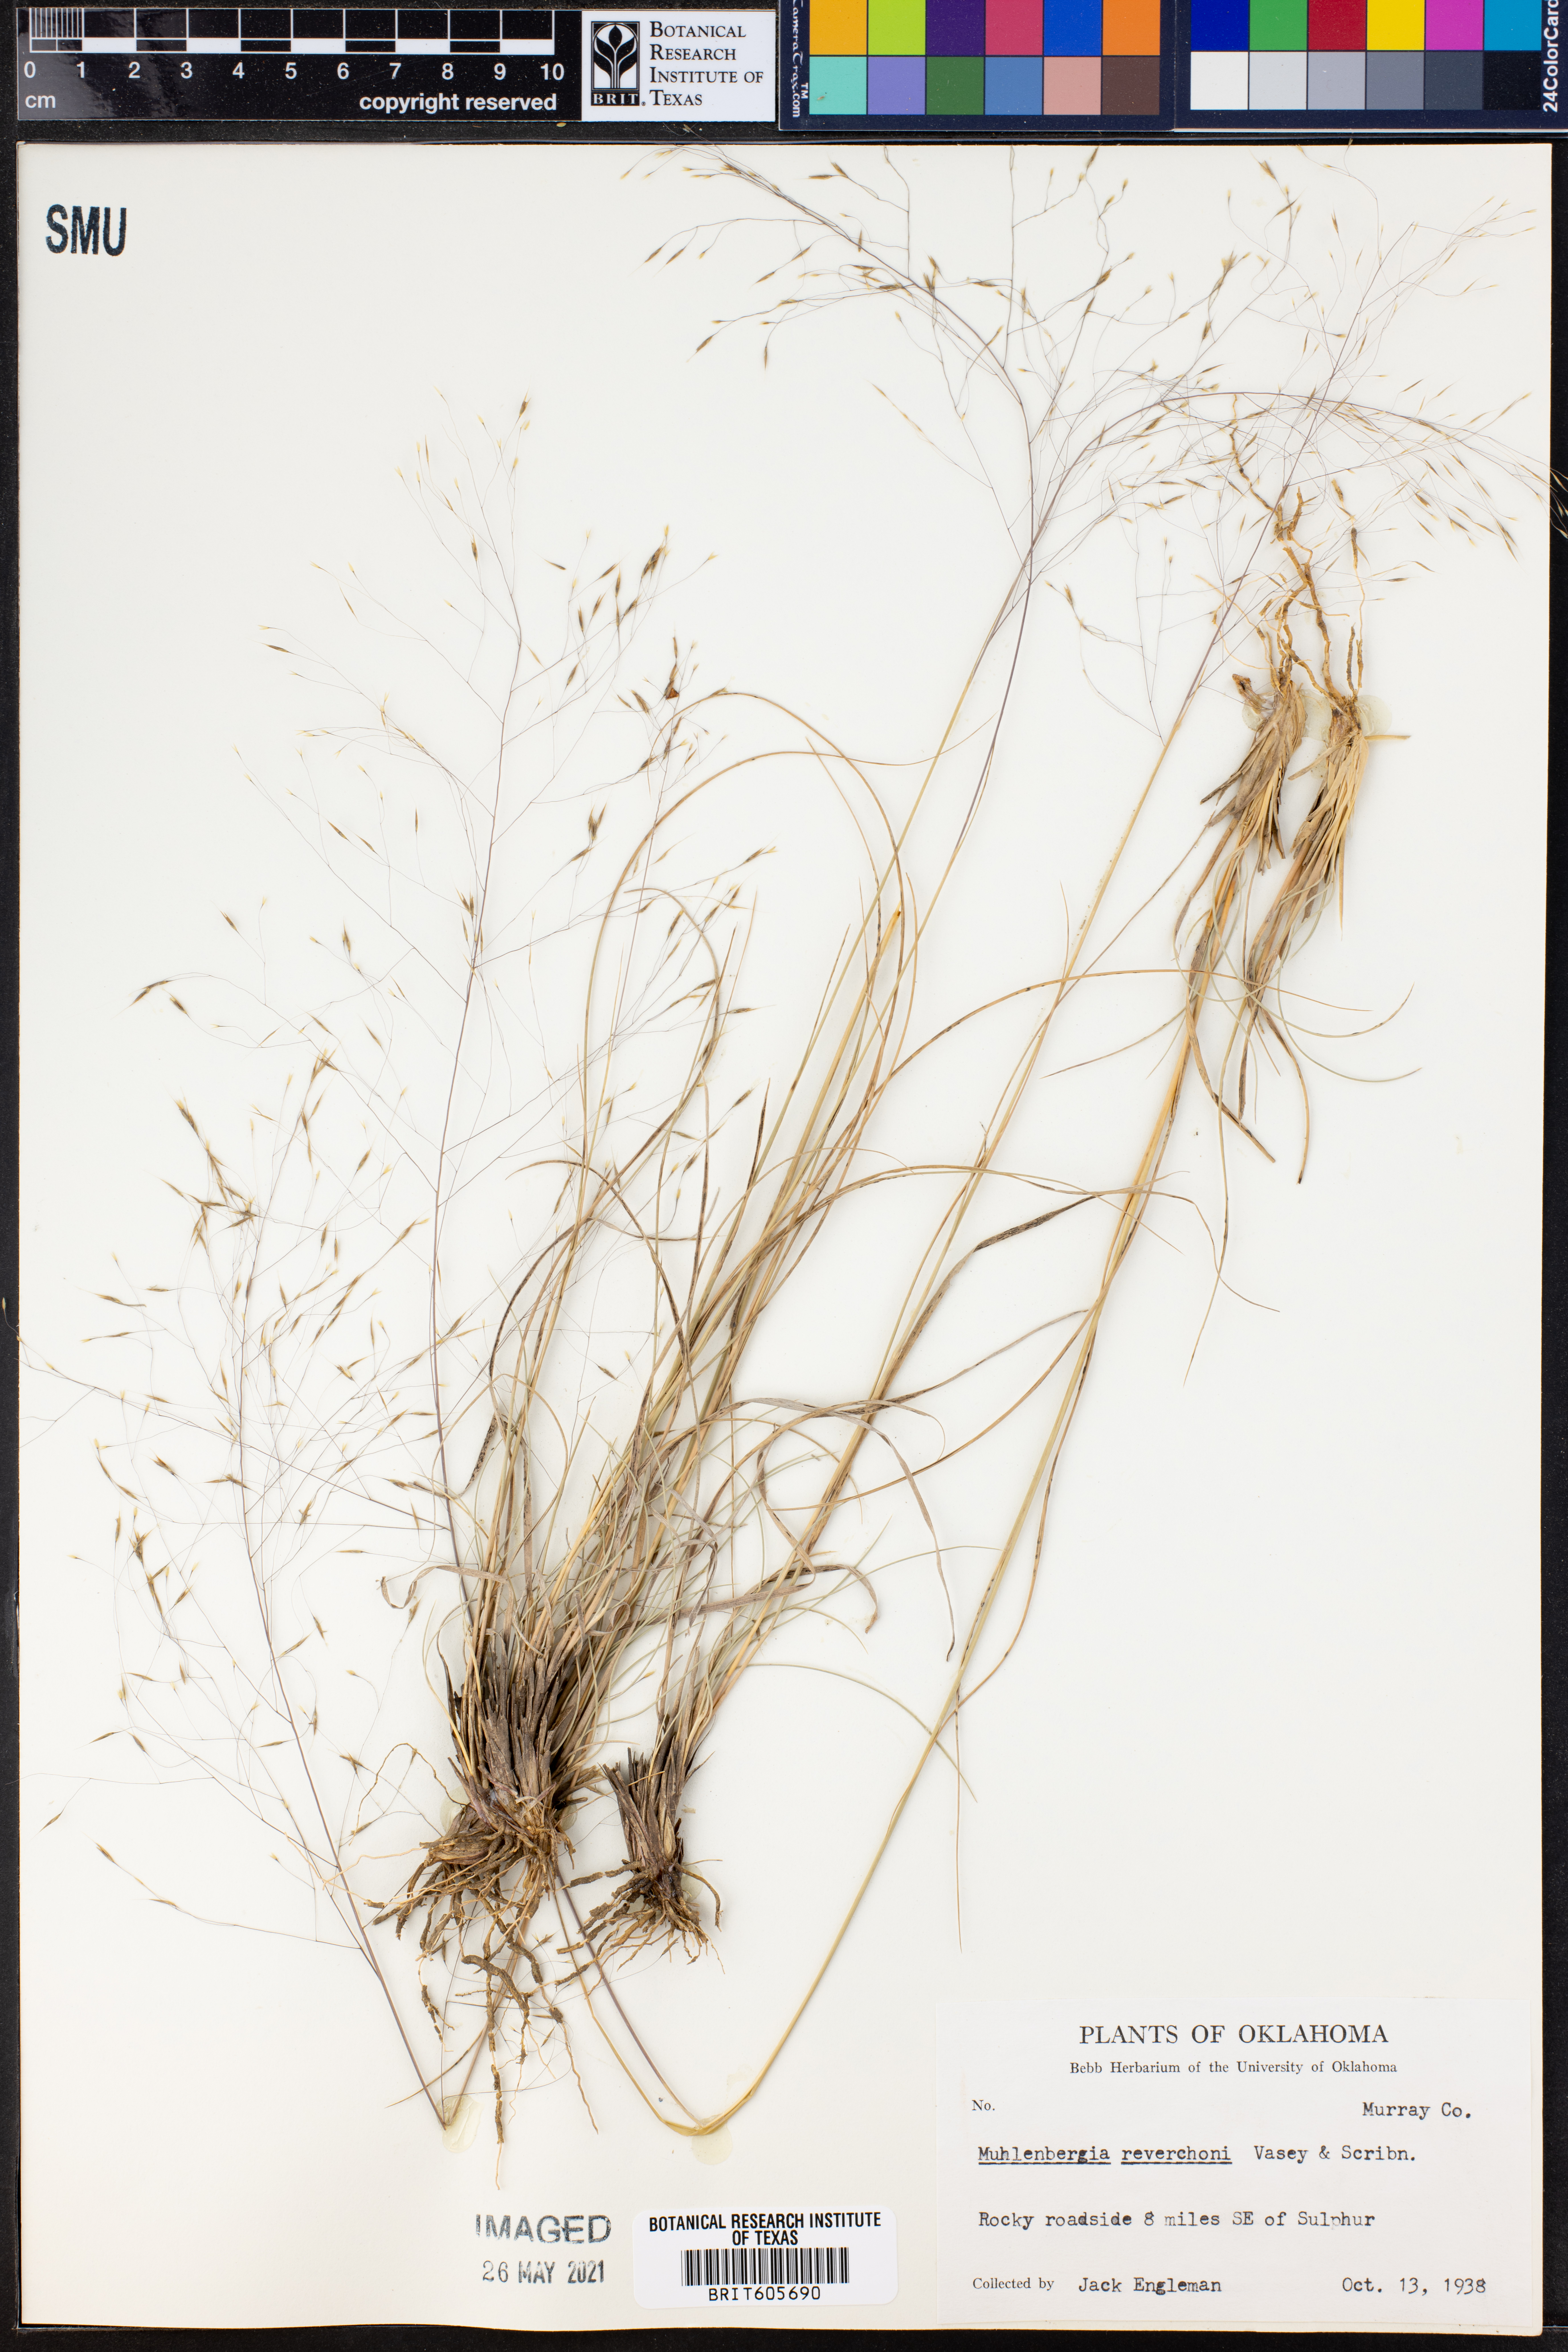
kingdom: Plantae
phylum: Tracheophyta
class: Liliopsida
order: Poales
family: Poaceae
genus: Muhlenbergia
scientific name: Muhlenbergia reverchonii
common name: Seep muhly
